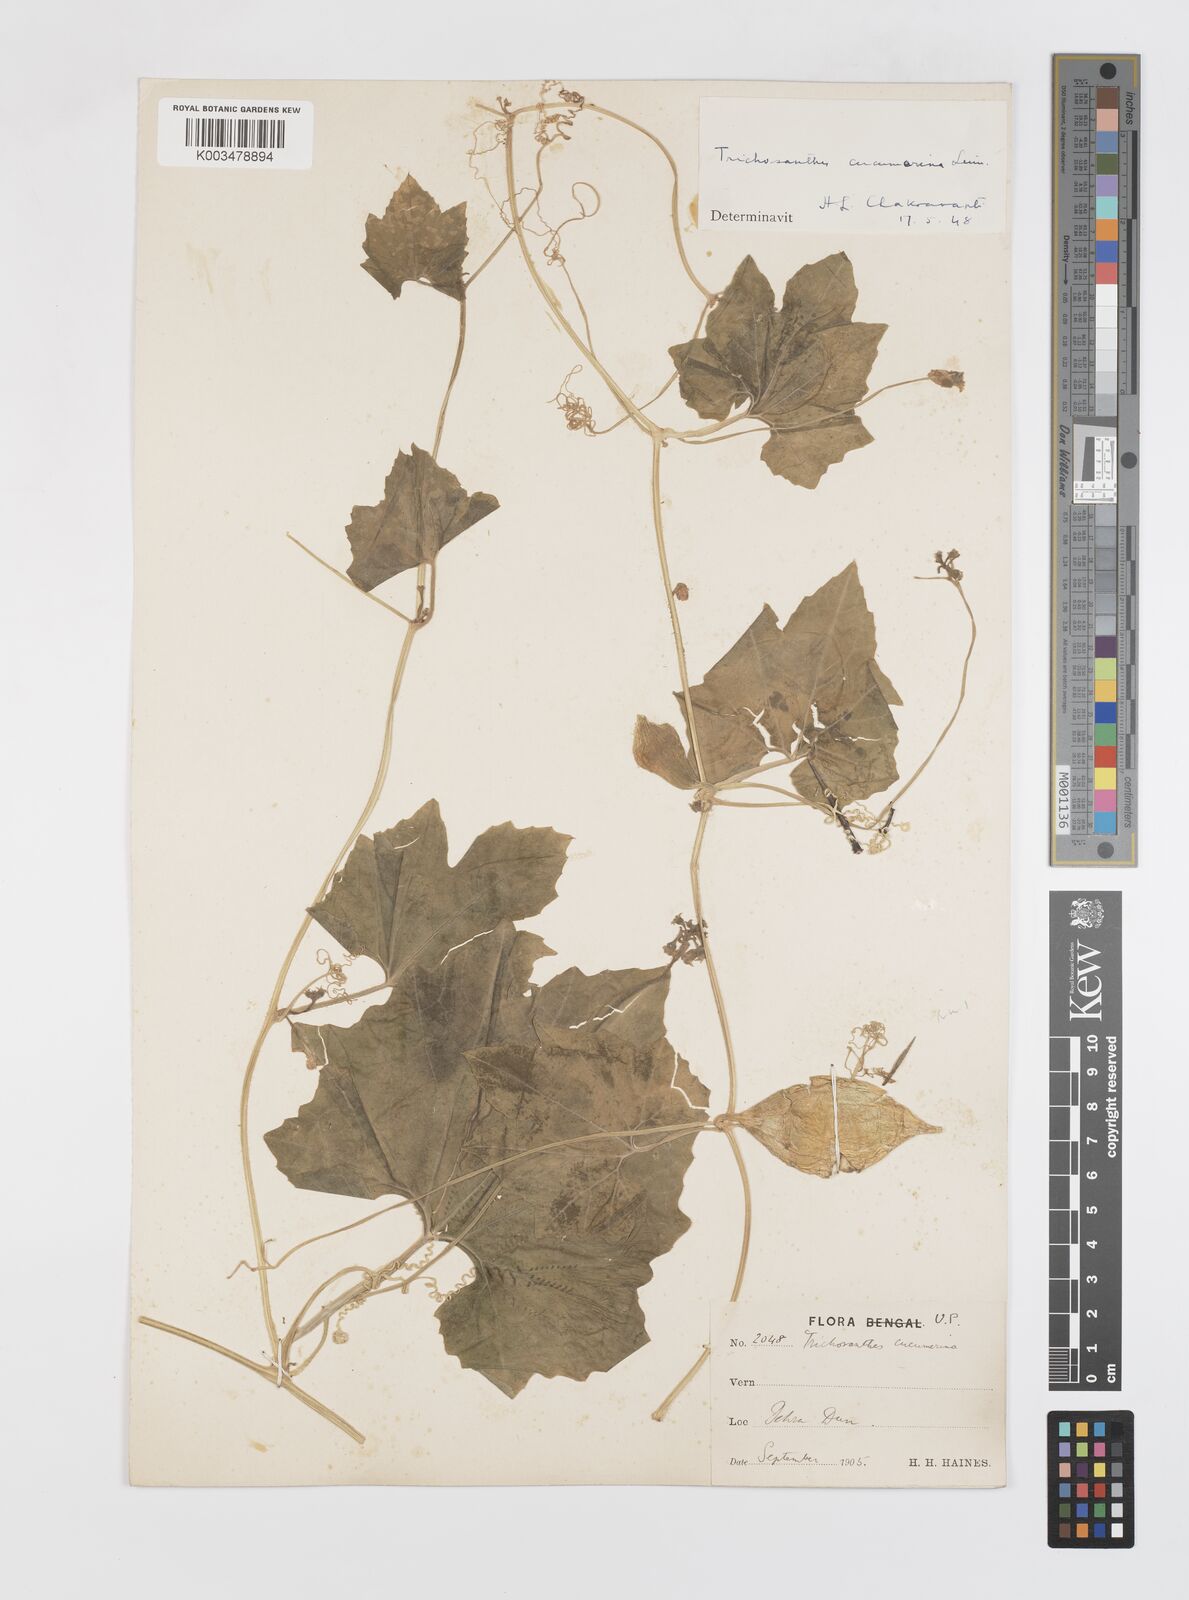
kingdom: Plantae
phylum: Tracheophyta
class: Magnoliopsida
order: Cucurbitales
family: Cucurbitaceae
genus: Trichosanthes
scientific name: Trichosanthes cucumerina
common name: Snakegourd
